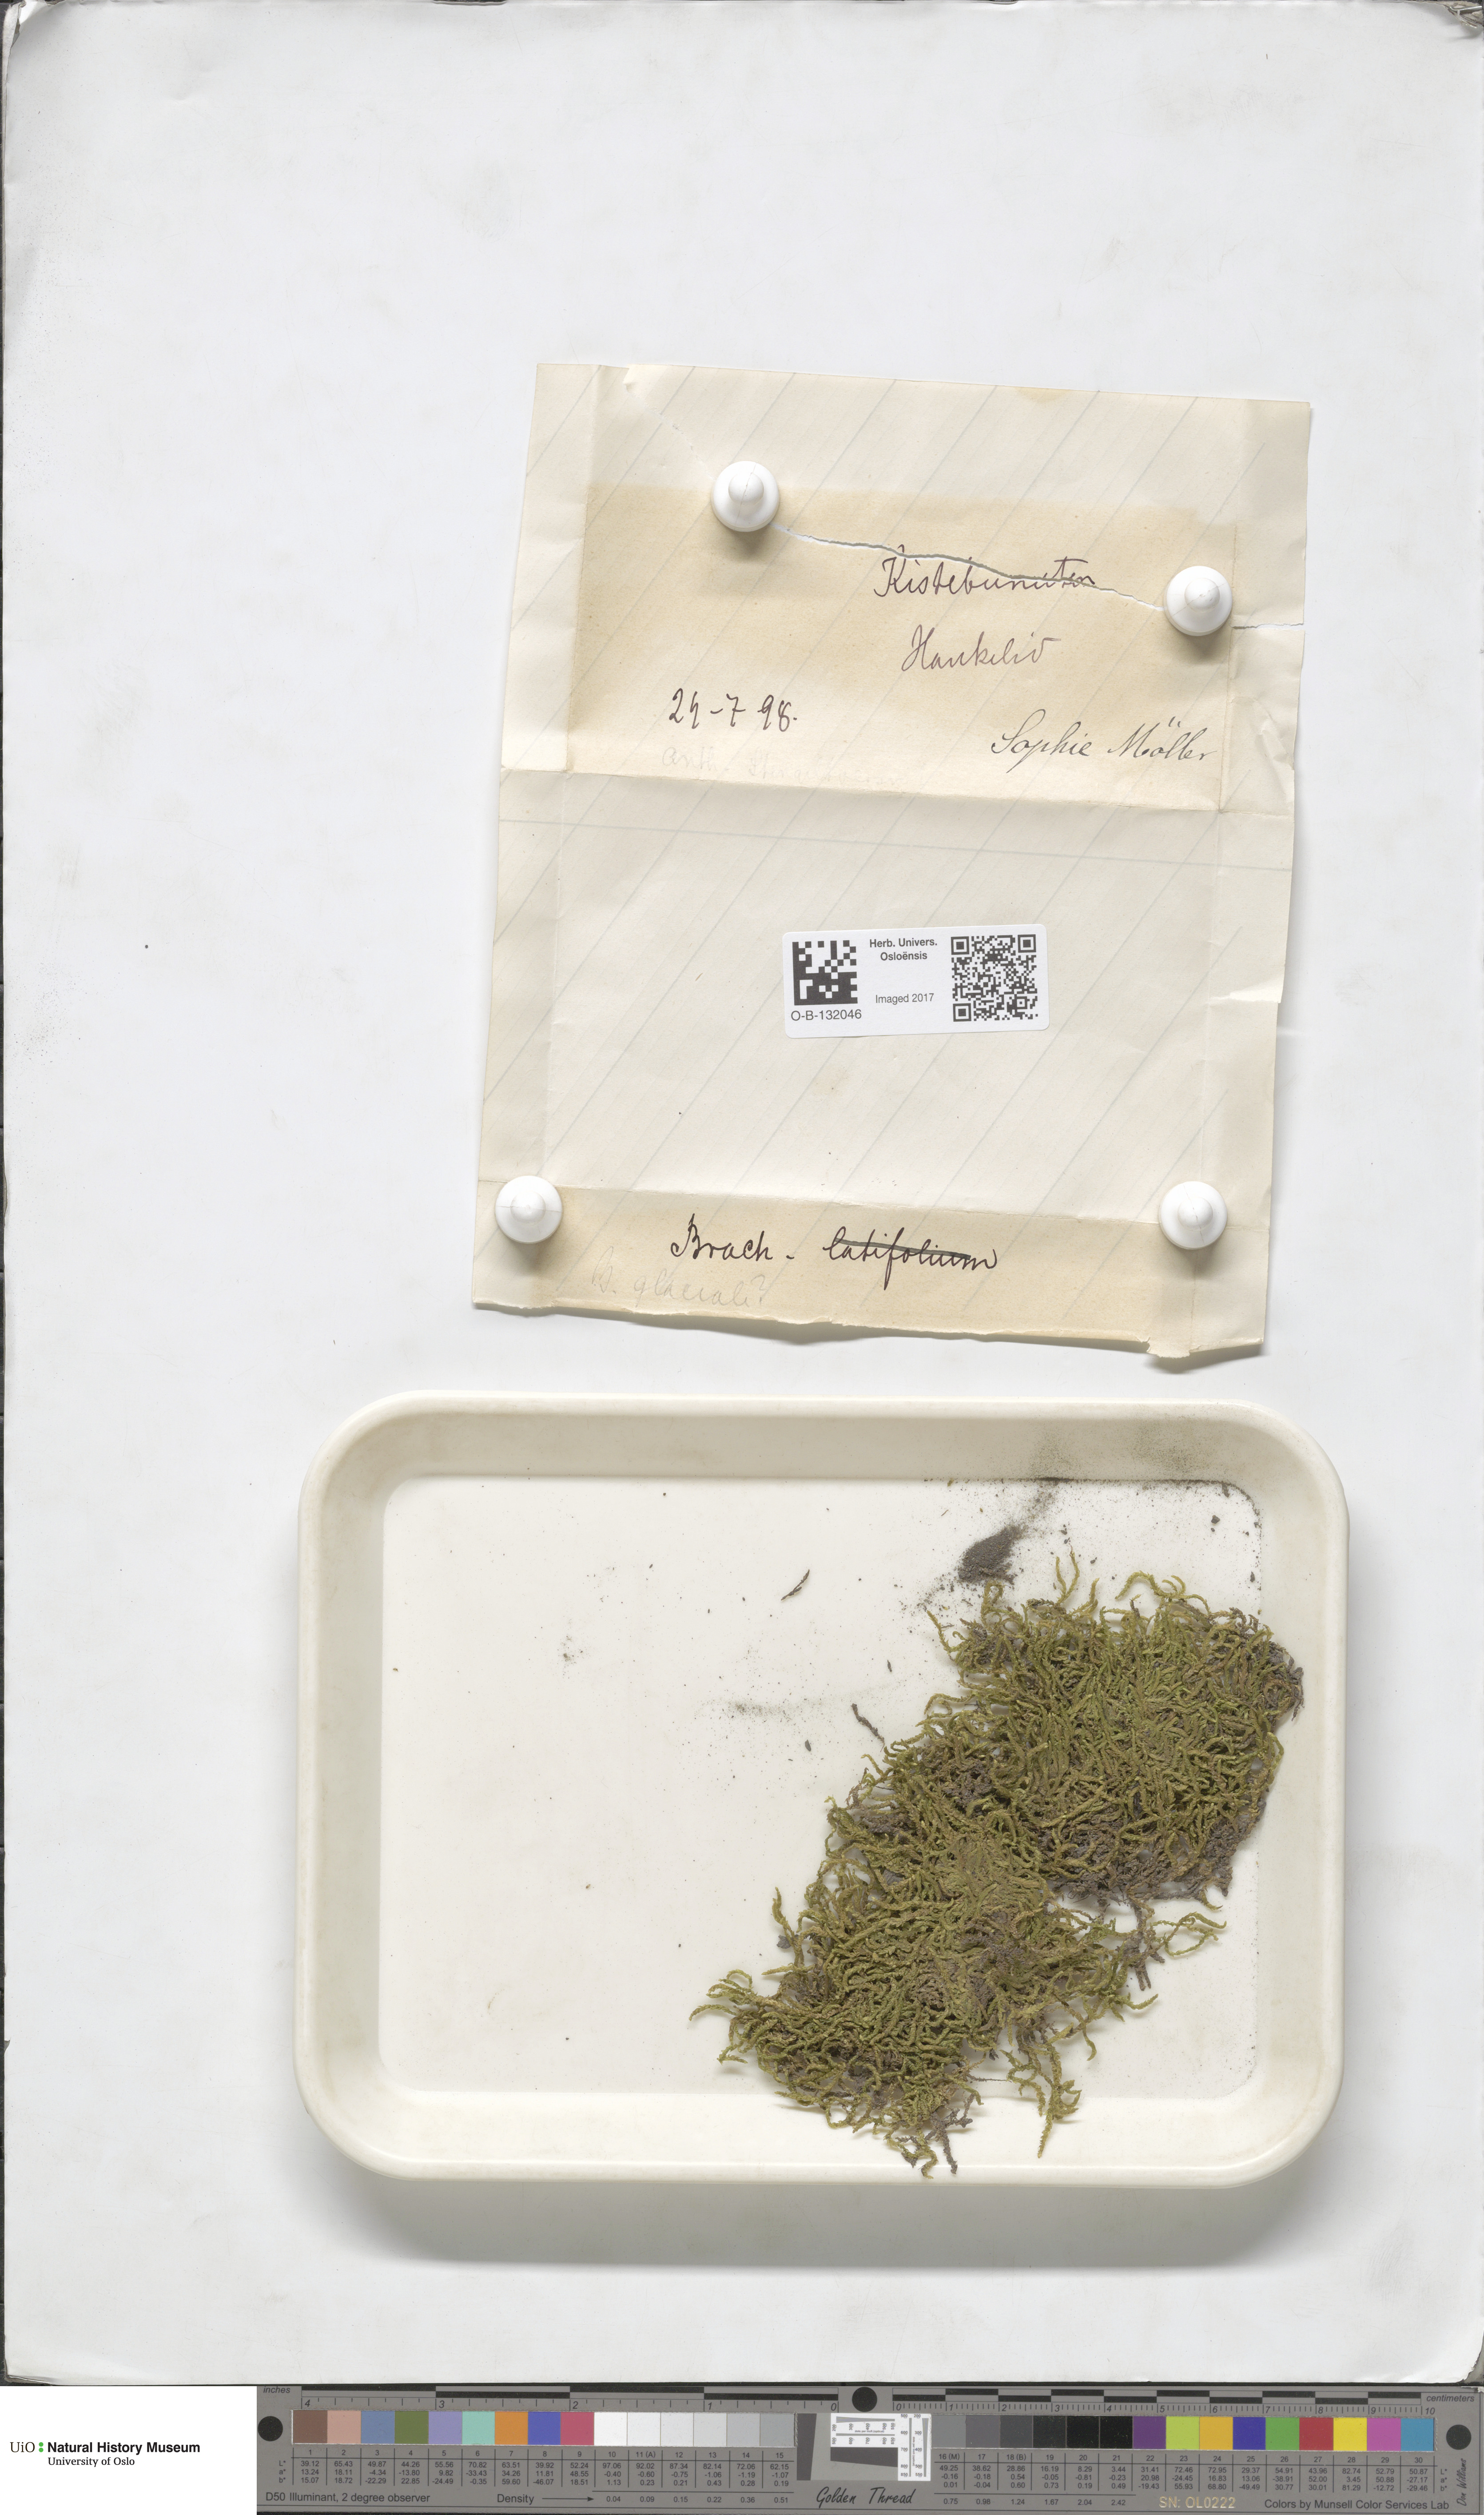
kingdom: Plantae
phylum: Bryophyta
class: Bryopsida
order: Hypnales
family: Brachytheciaceae
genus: Sciuro-hypnum
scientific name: Sciuro-hypnum glaciale
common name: Snow feather-moss
